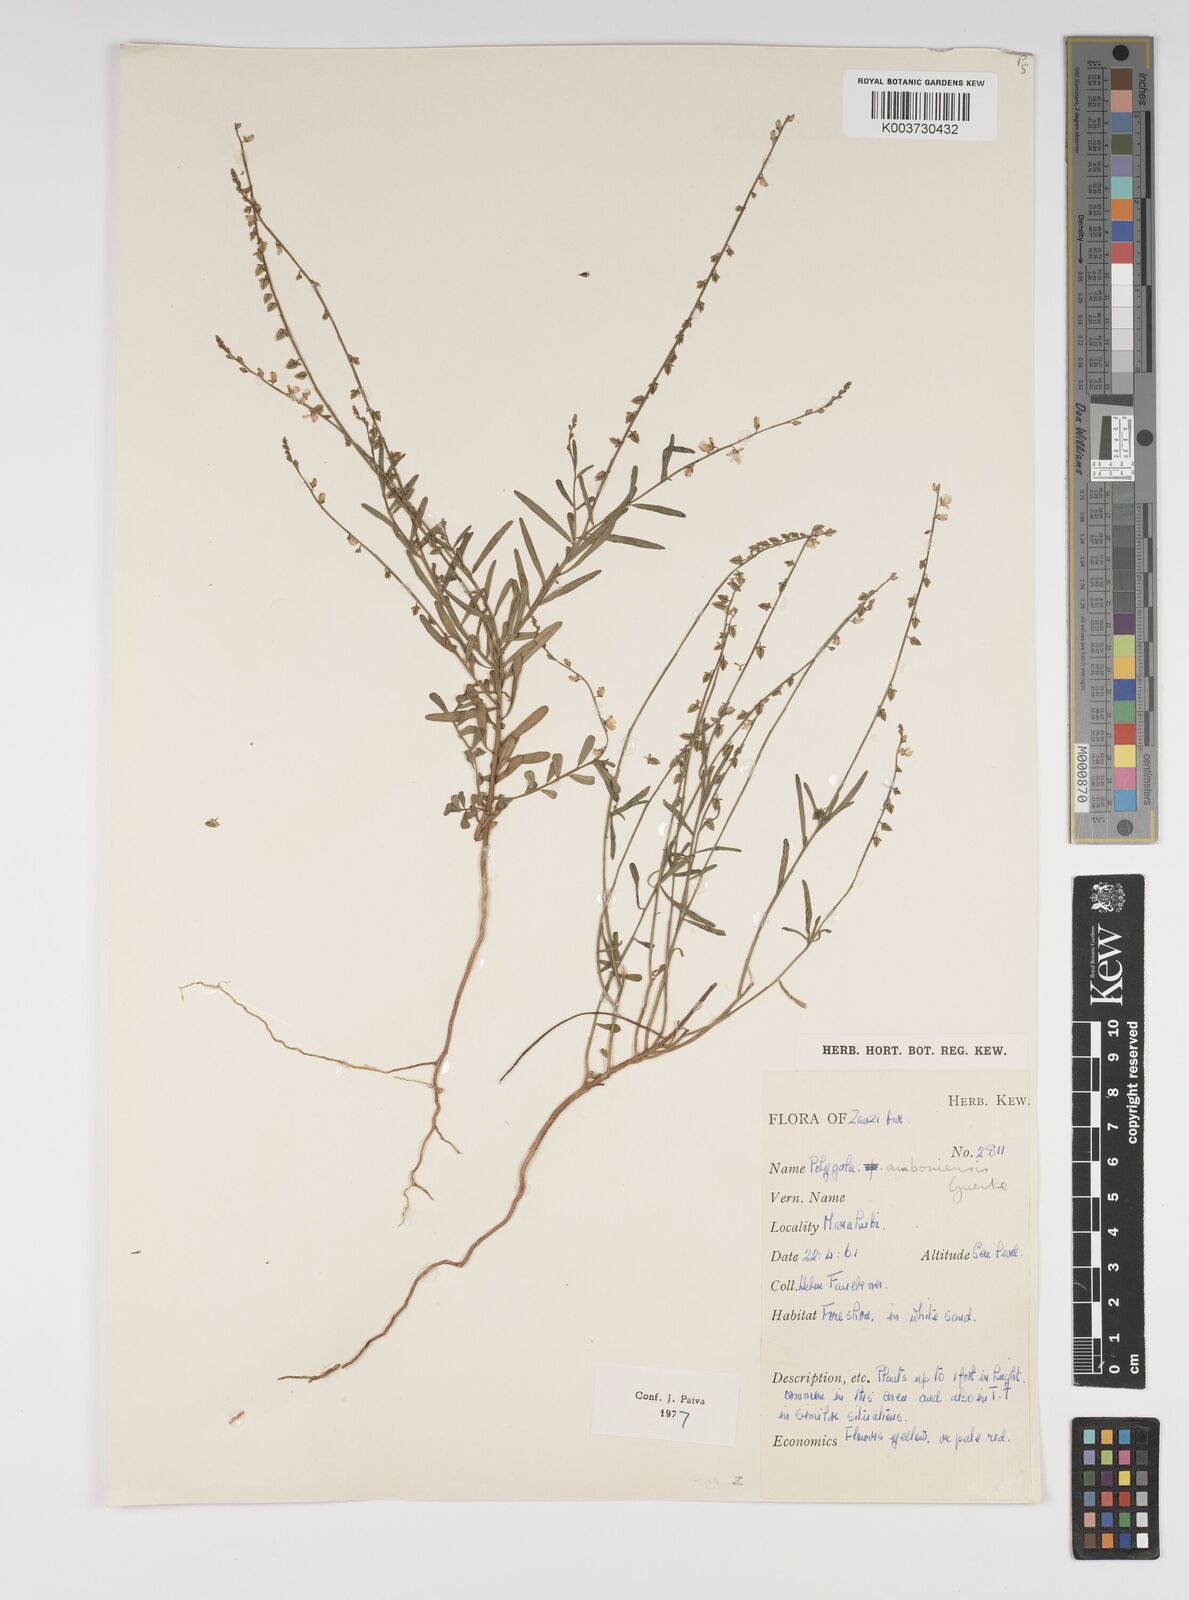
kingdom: Plantae
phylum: Tracheophyta
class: Magnoliopsida
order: Fabales
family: Polygalaceae
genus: Polygala
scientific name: Polygala amboniensis
